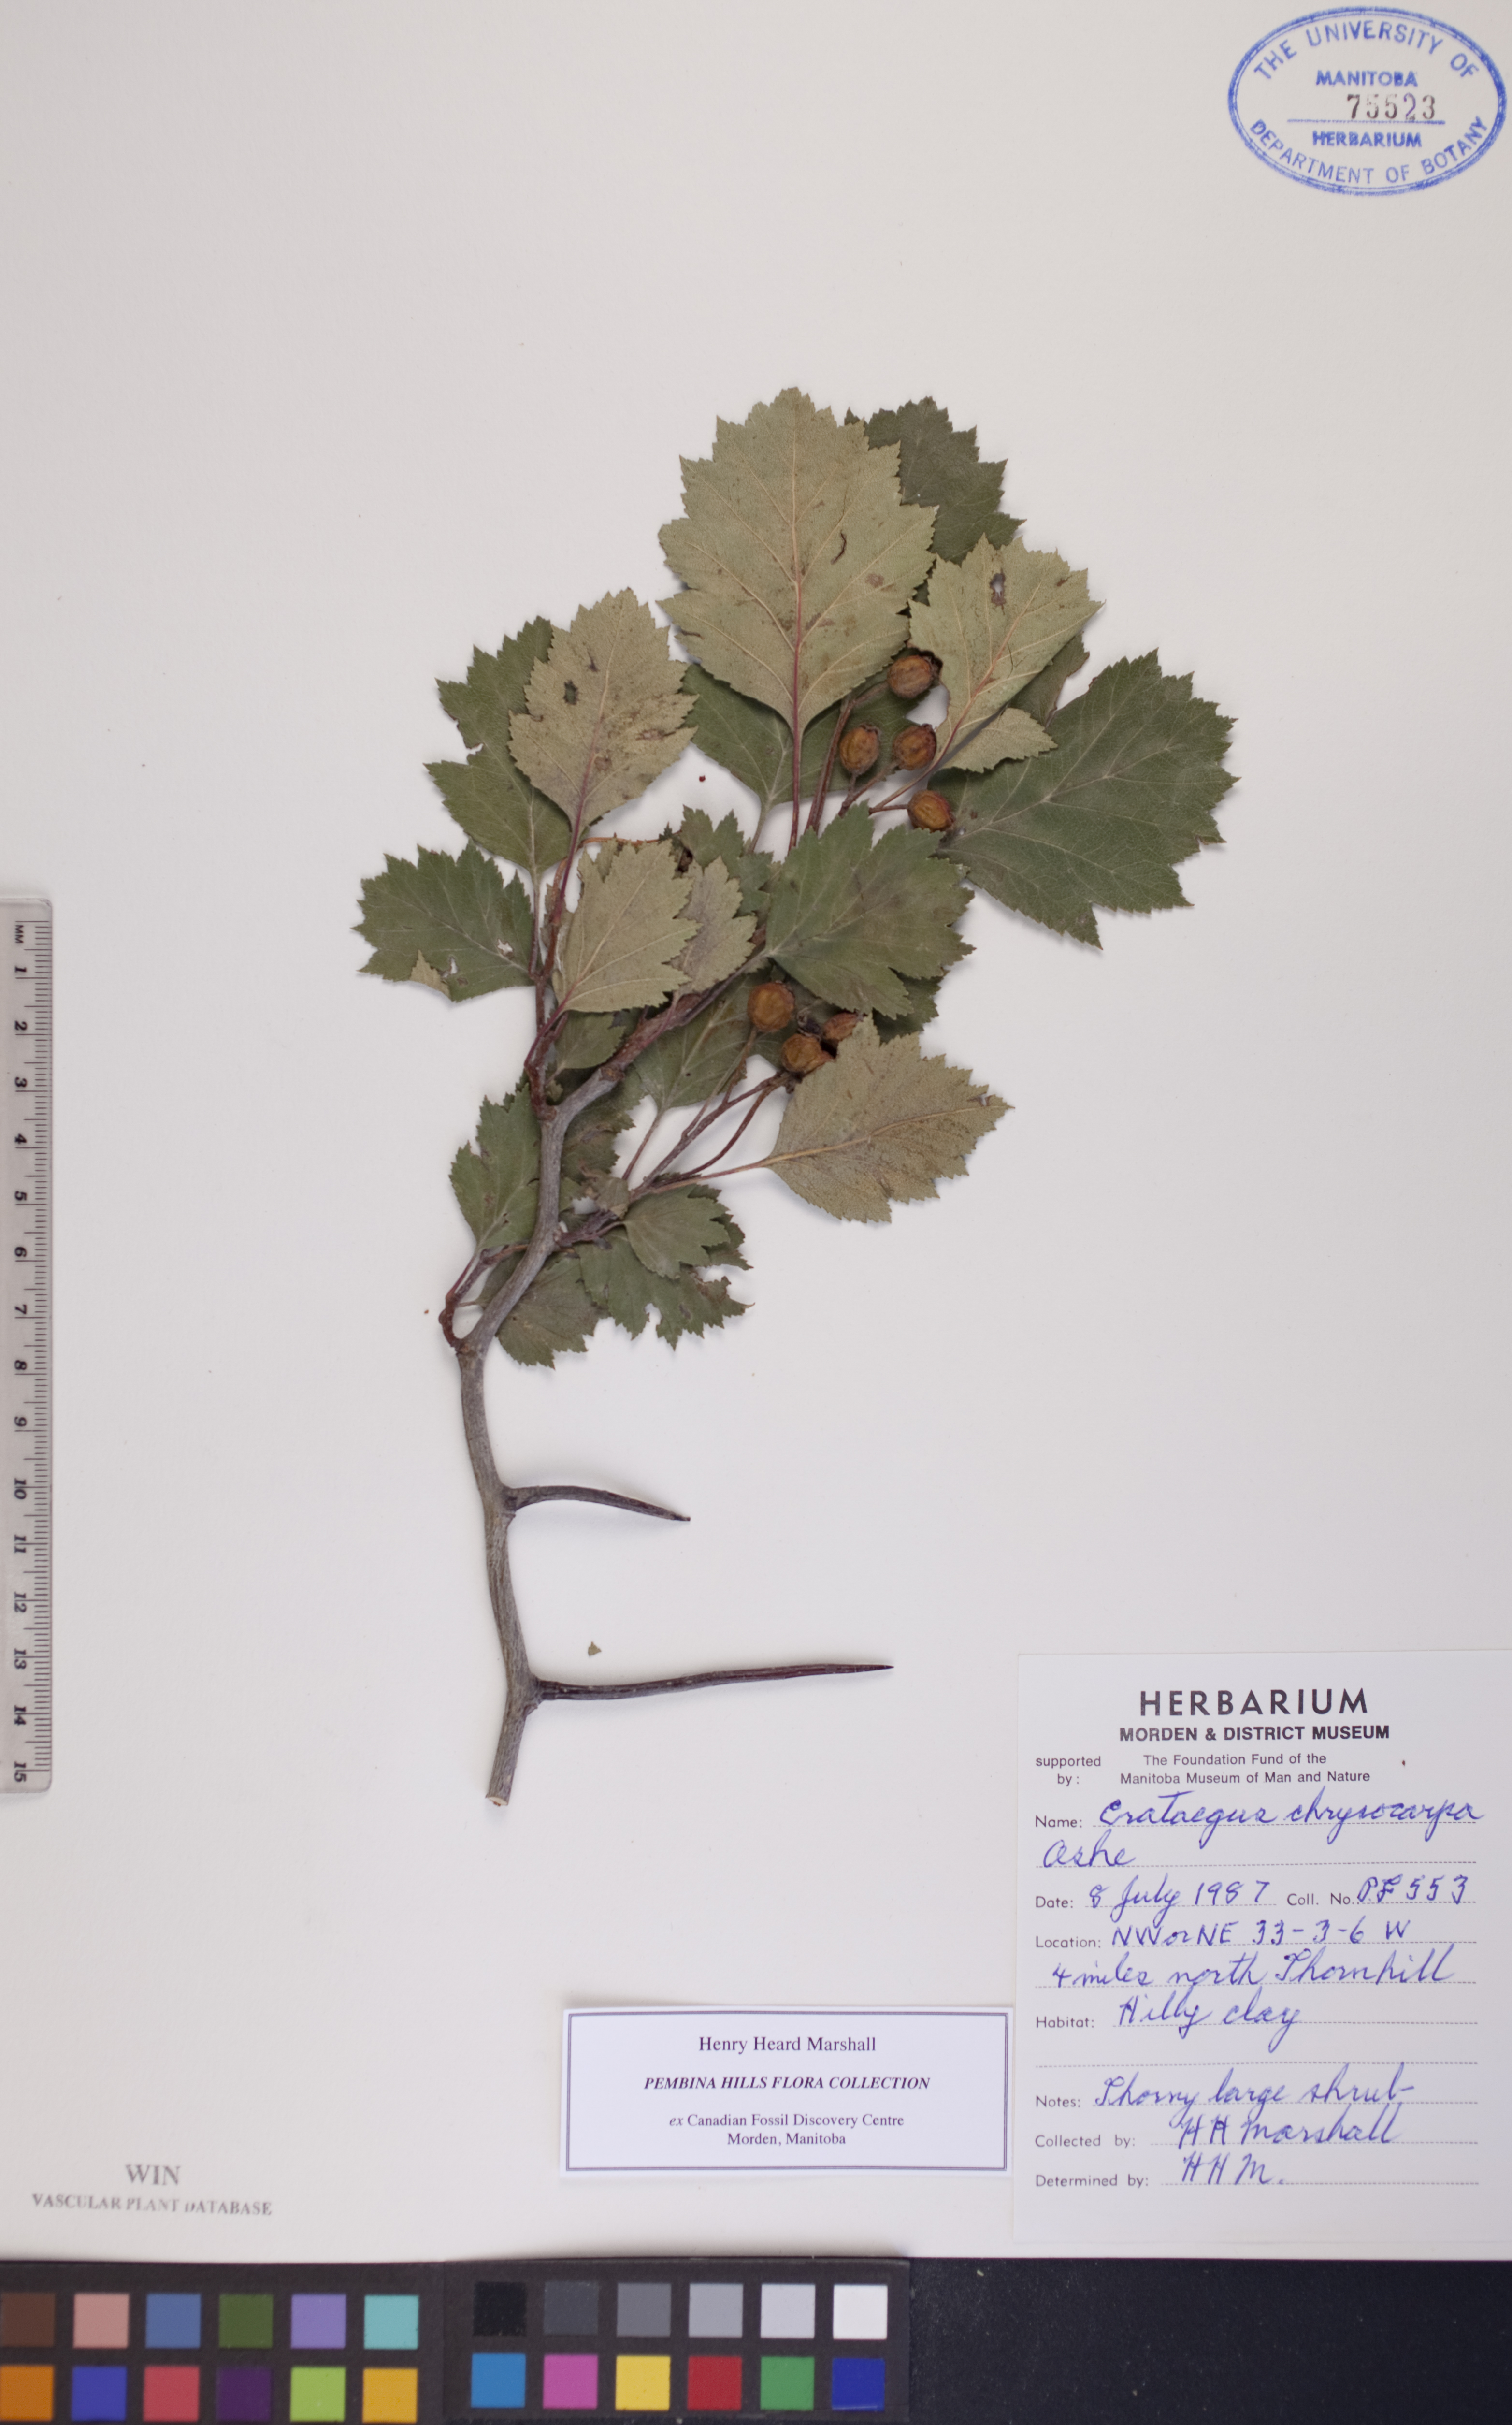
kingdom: Plantae
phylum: Tracheophyta
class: Magnoliopsida
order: Rosales
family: Rosaceae
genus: Crataegus
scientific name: Crataegus chrysocarpa
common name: Fire-berry hawthorn
